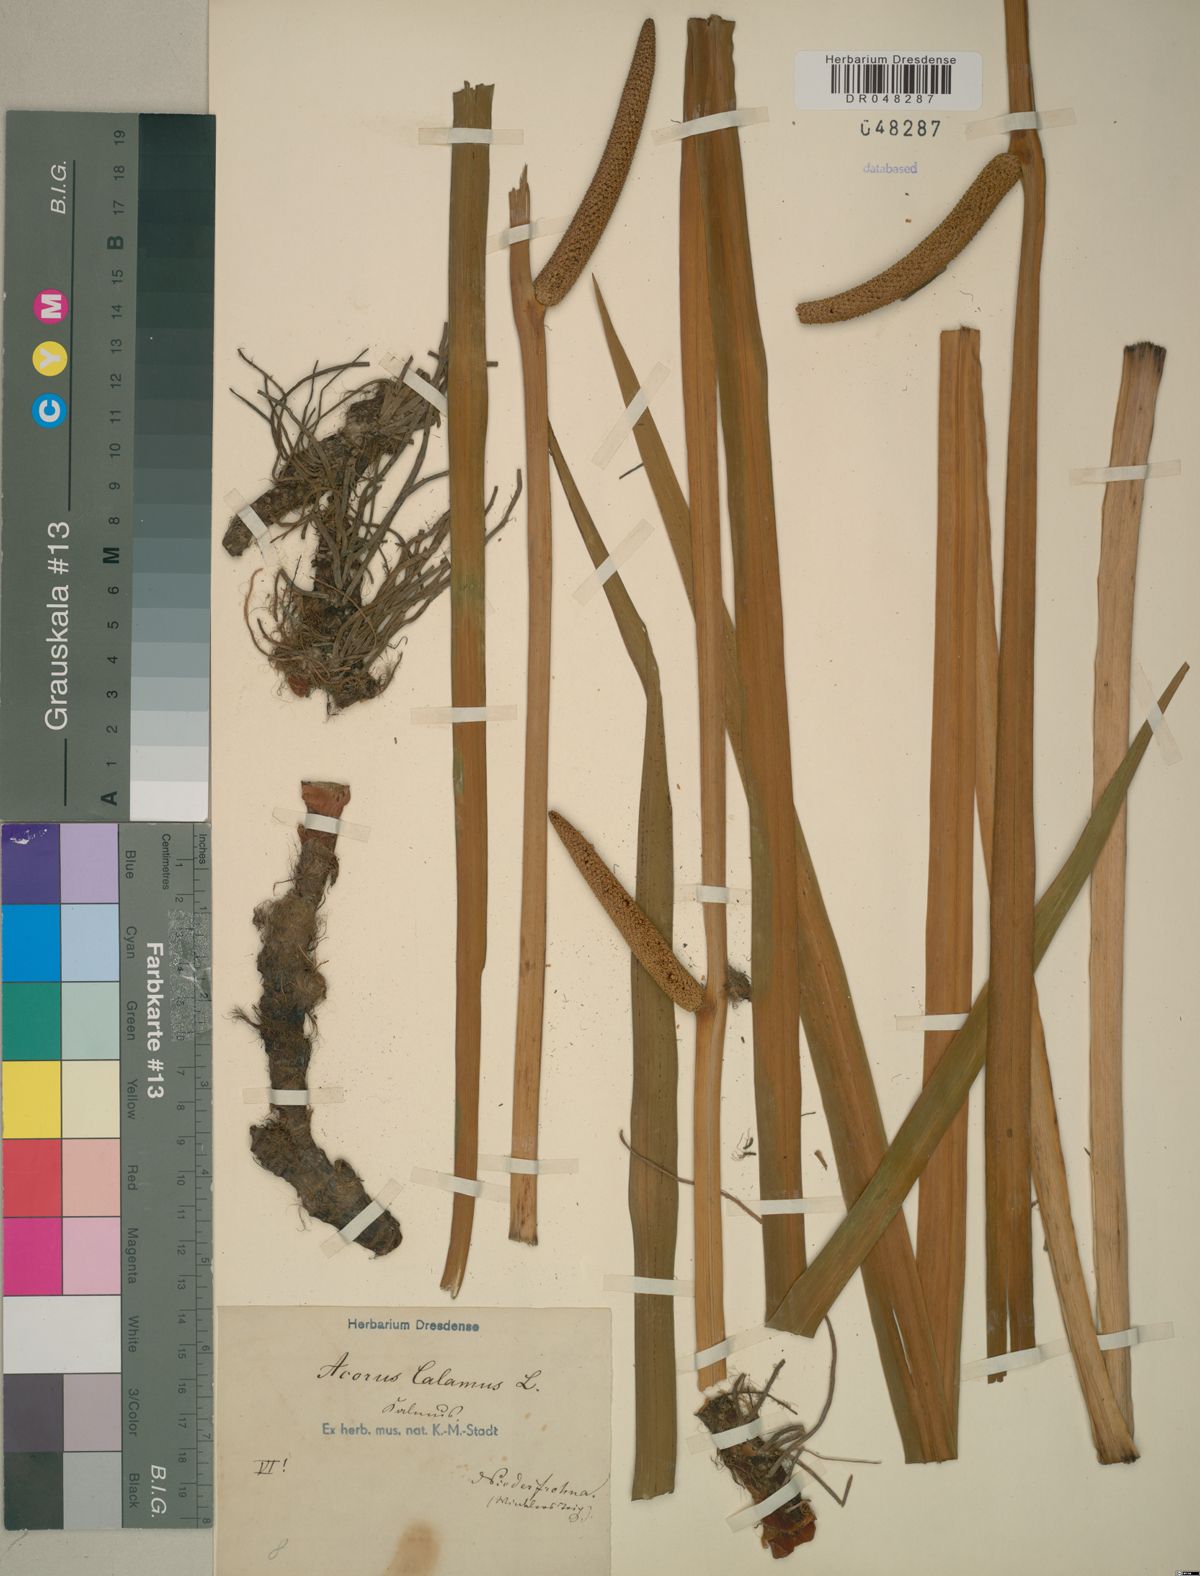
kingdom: Plantae
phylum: Tracheophyta
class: Liliopsida
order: Acorales
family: Acoraceae
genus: Acorus
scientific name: Acorus calamus
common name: Sweet-flag
